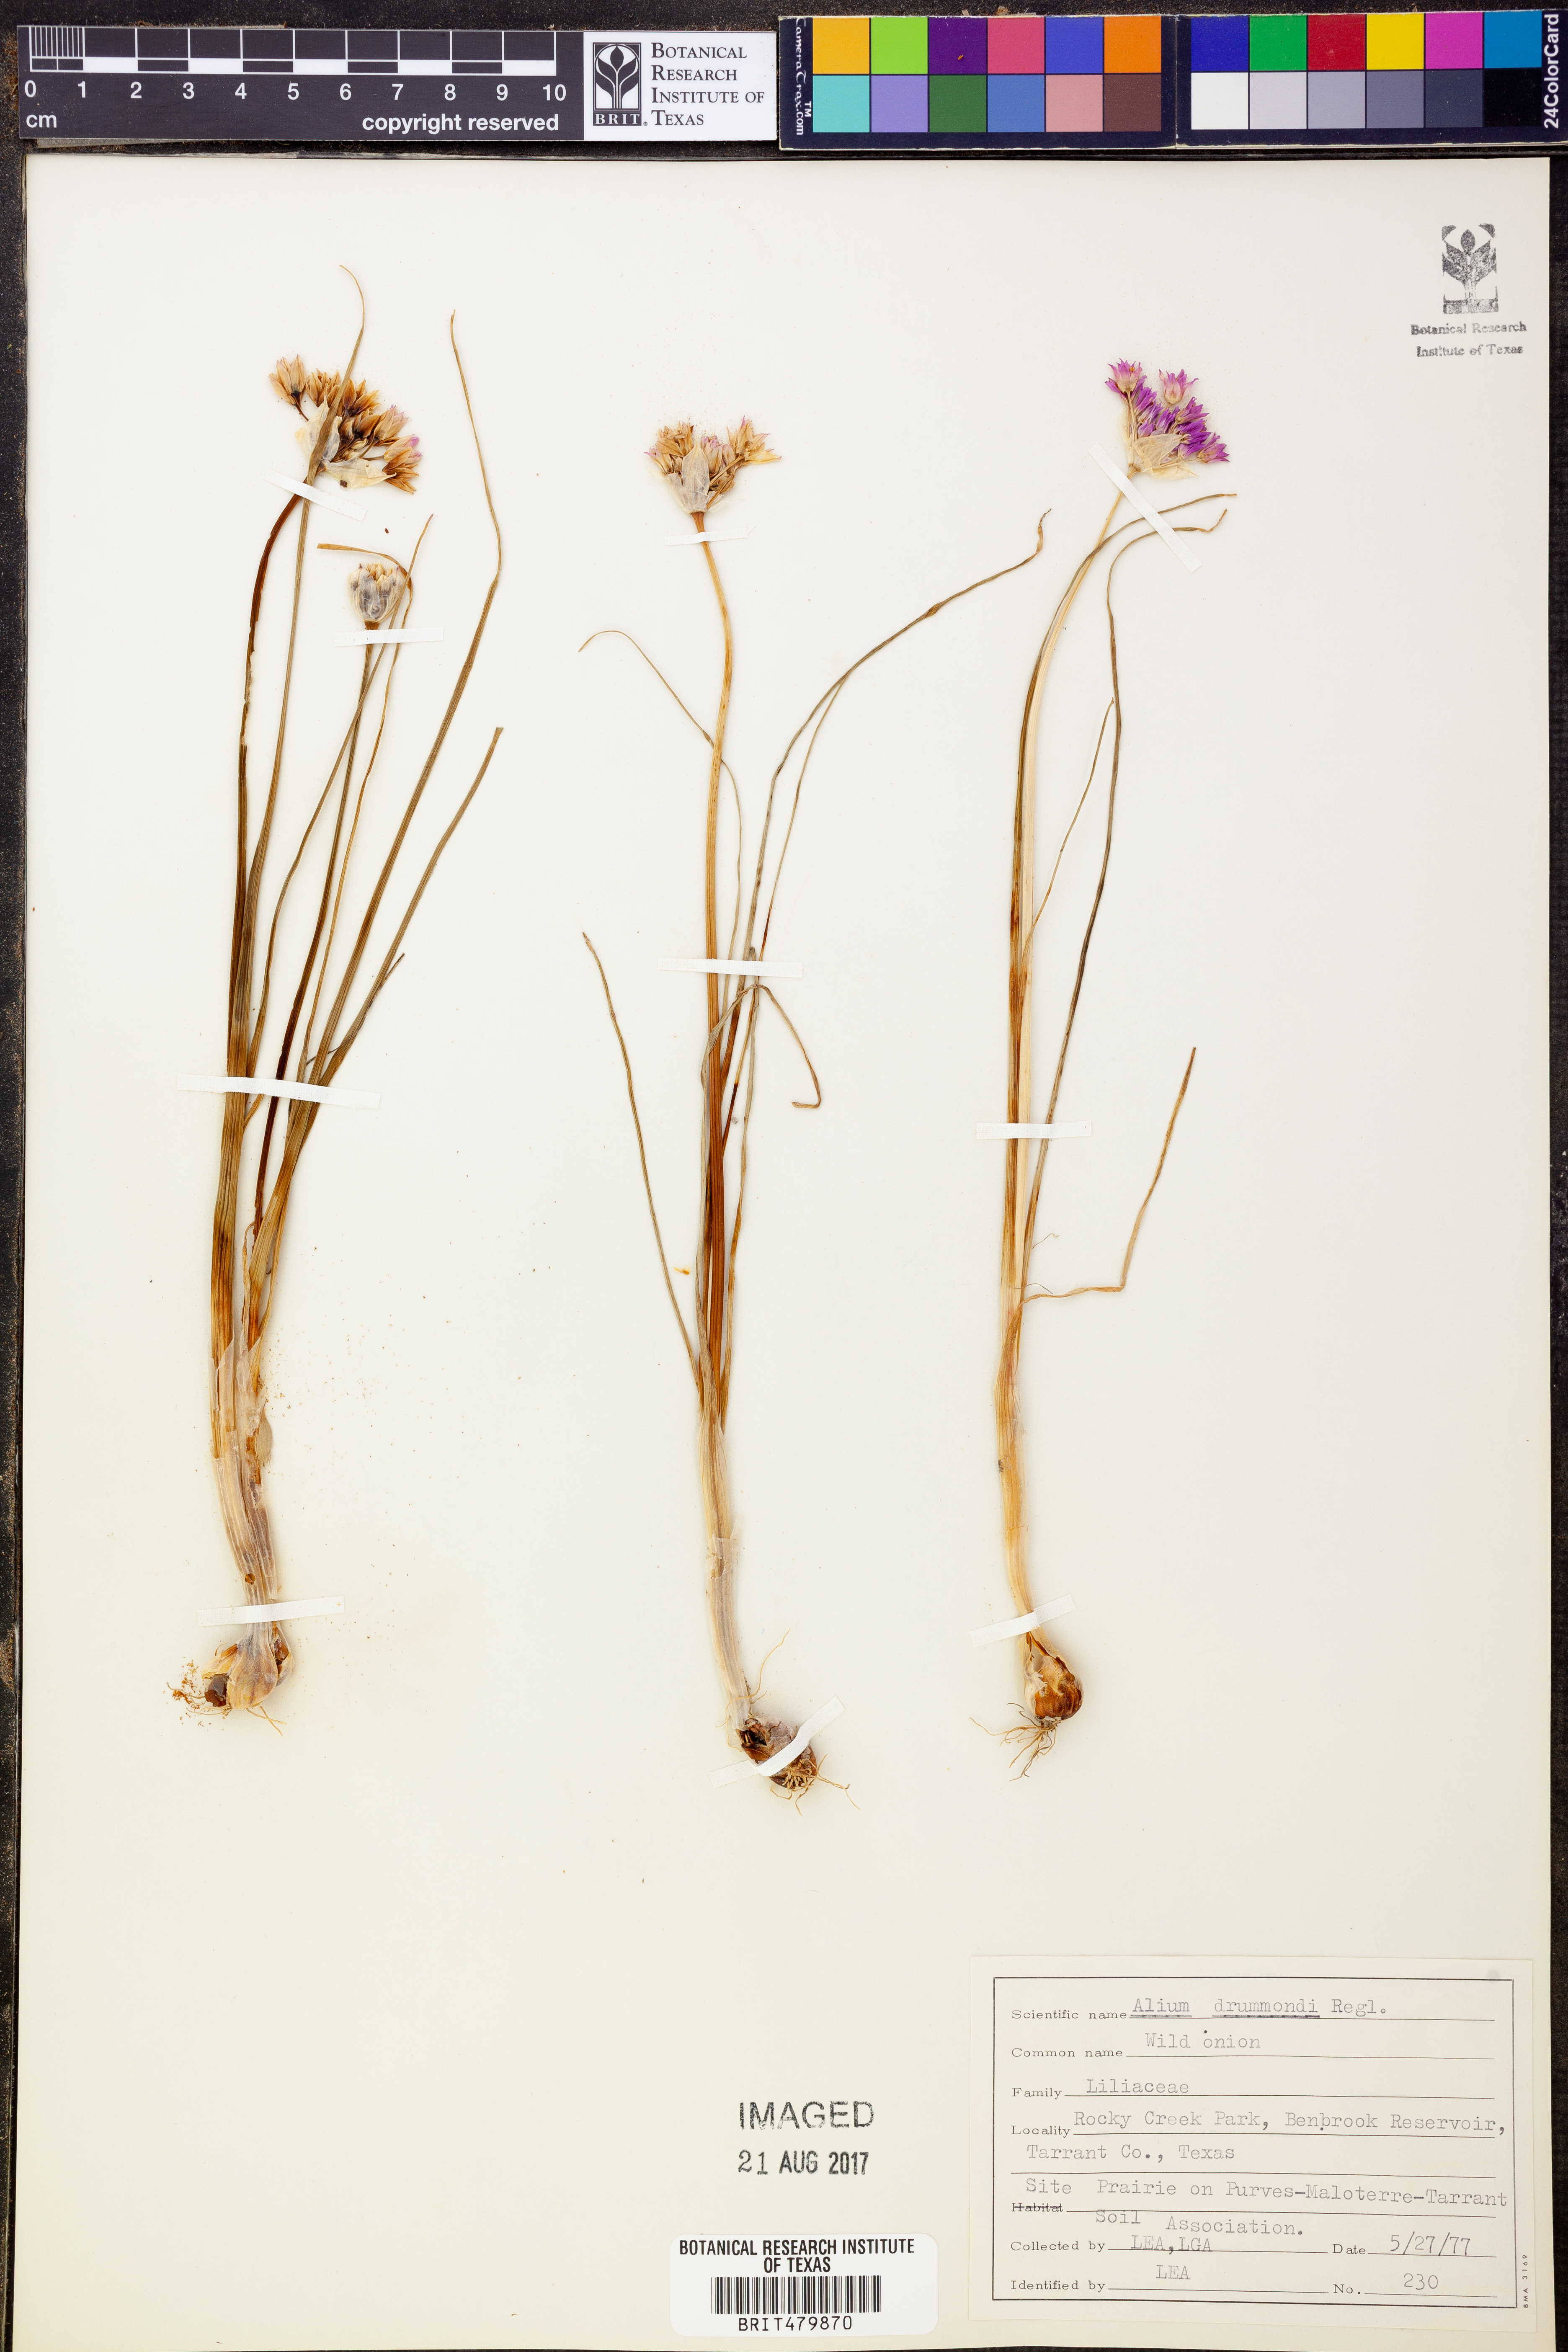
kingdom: Plantae
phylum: Tracheophyta
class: Liliopsida
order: Asparagales
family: Amaryllidaceae
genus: Allium
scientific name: Allium drummondii
